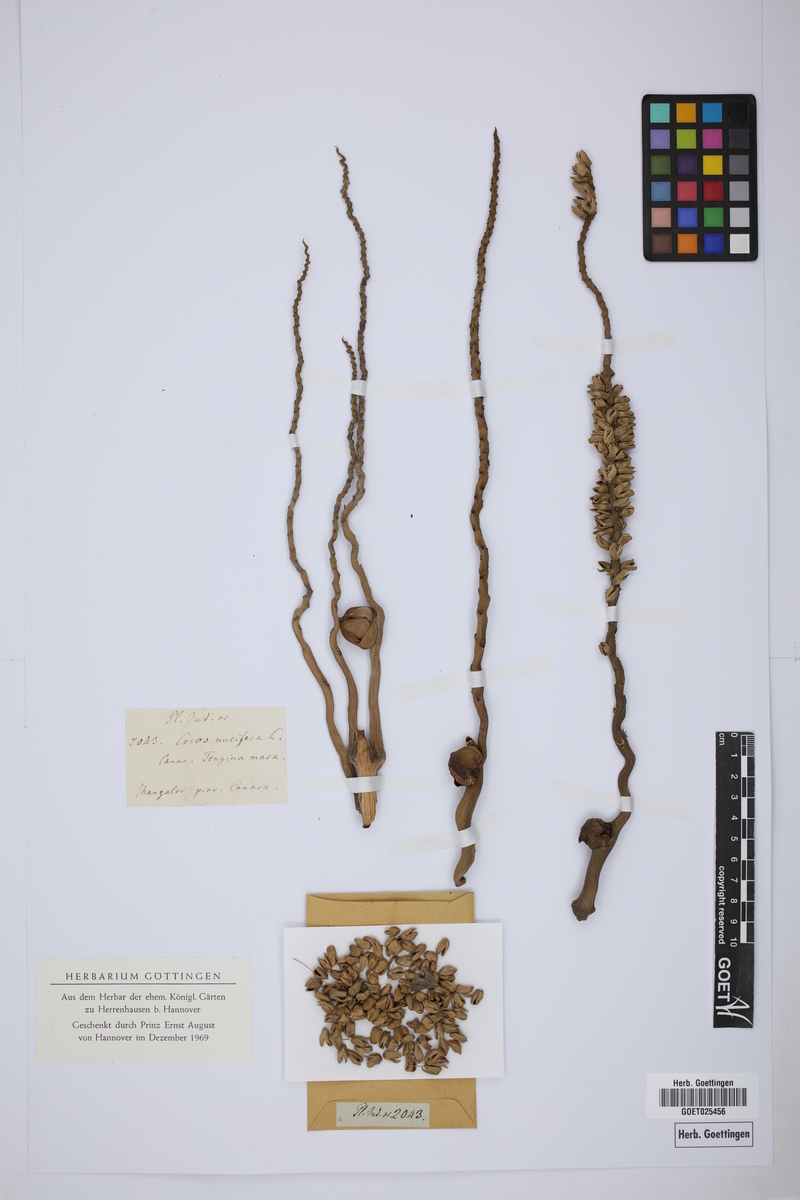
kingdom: Plantae
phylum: Tracheophyta
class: Liliopsida
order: Arecales
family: Arecaceae
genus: Cocos
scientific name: Cocos nucifera
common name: Coconut palm
